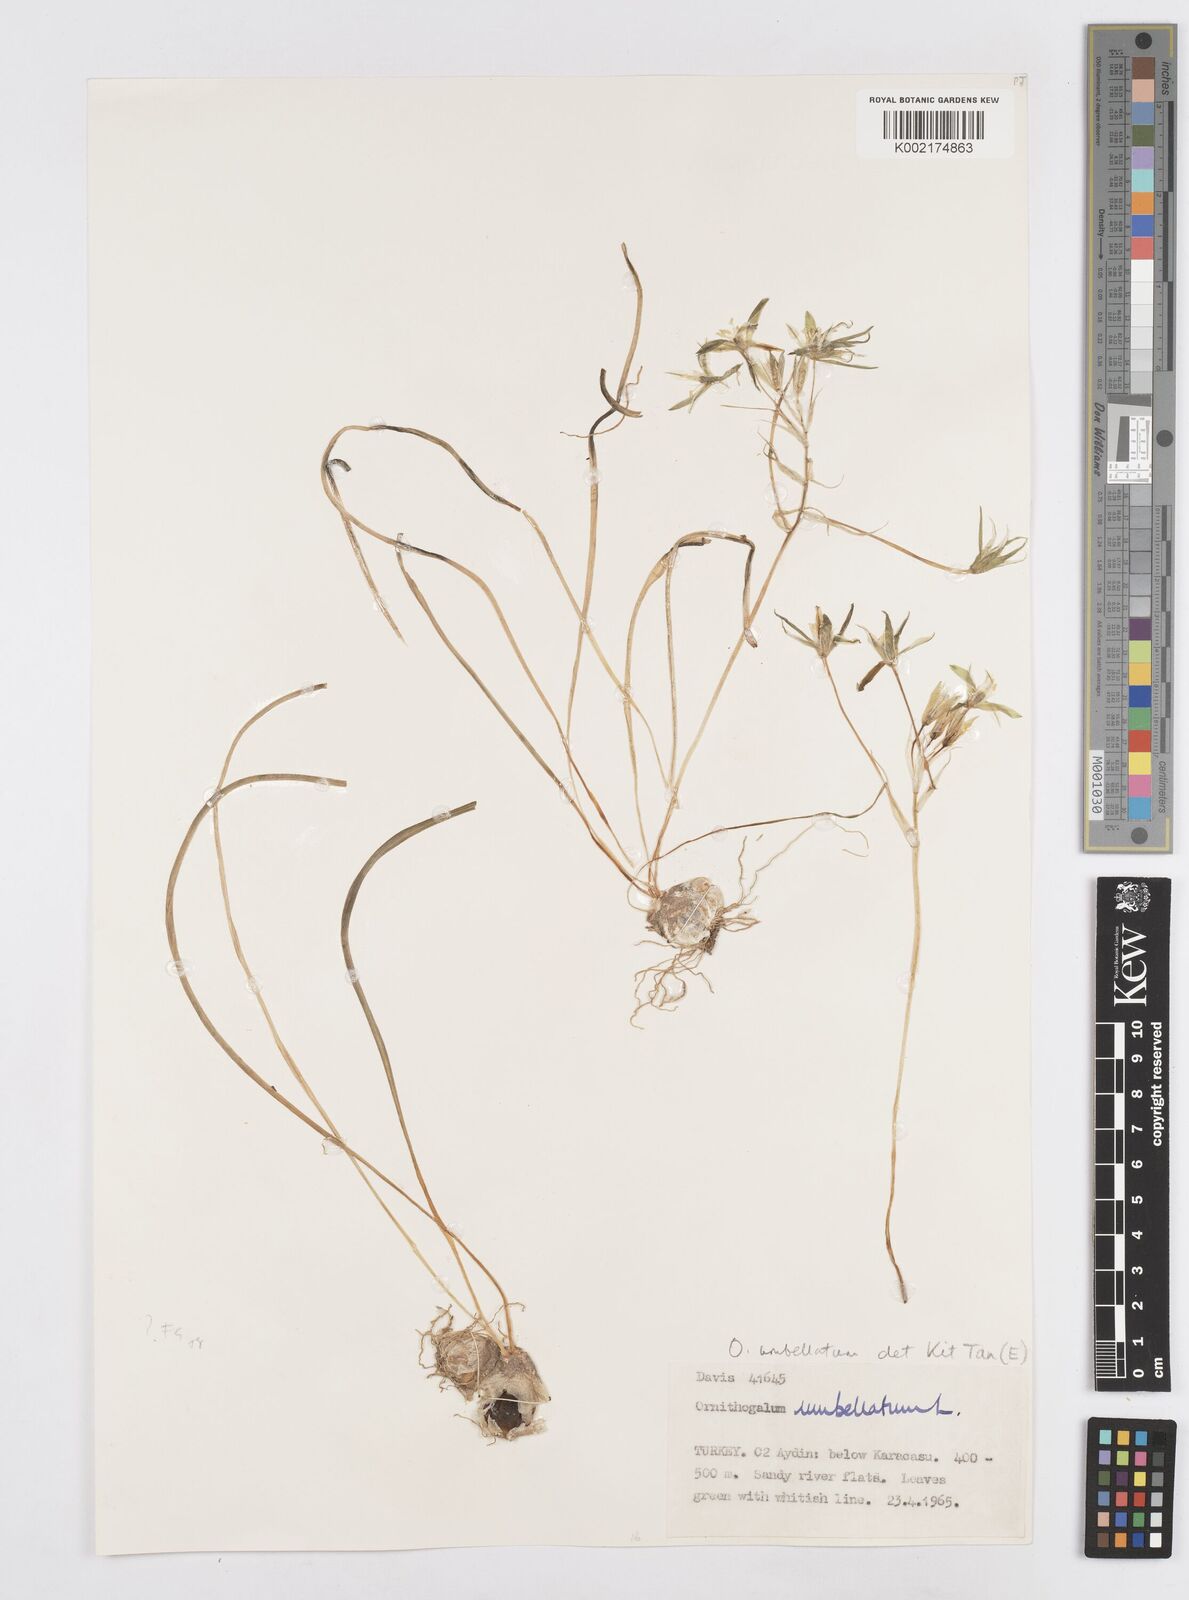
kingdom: Plantae
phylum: Tracheophyta
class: Liliopsida
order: Asparagales
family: Asparagaceae
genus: Ornithogalum
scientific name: Ornithogalum umbellatum
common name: Garden star-of-bethlehem
